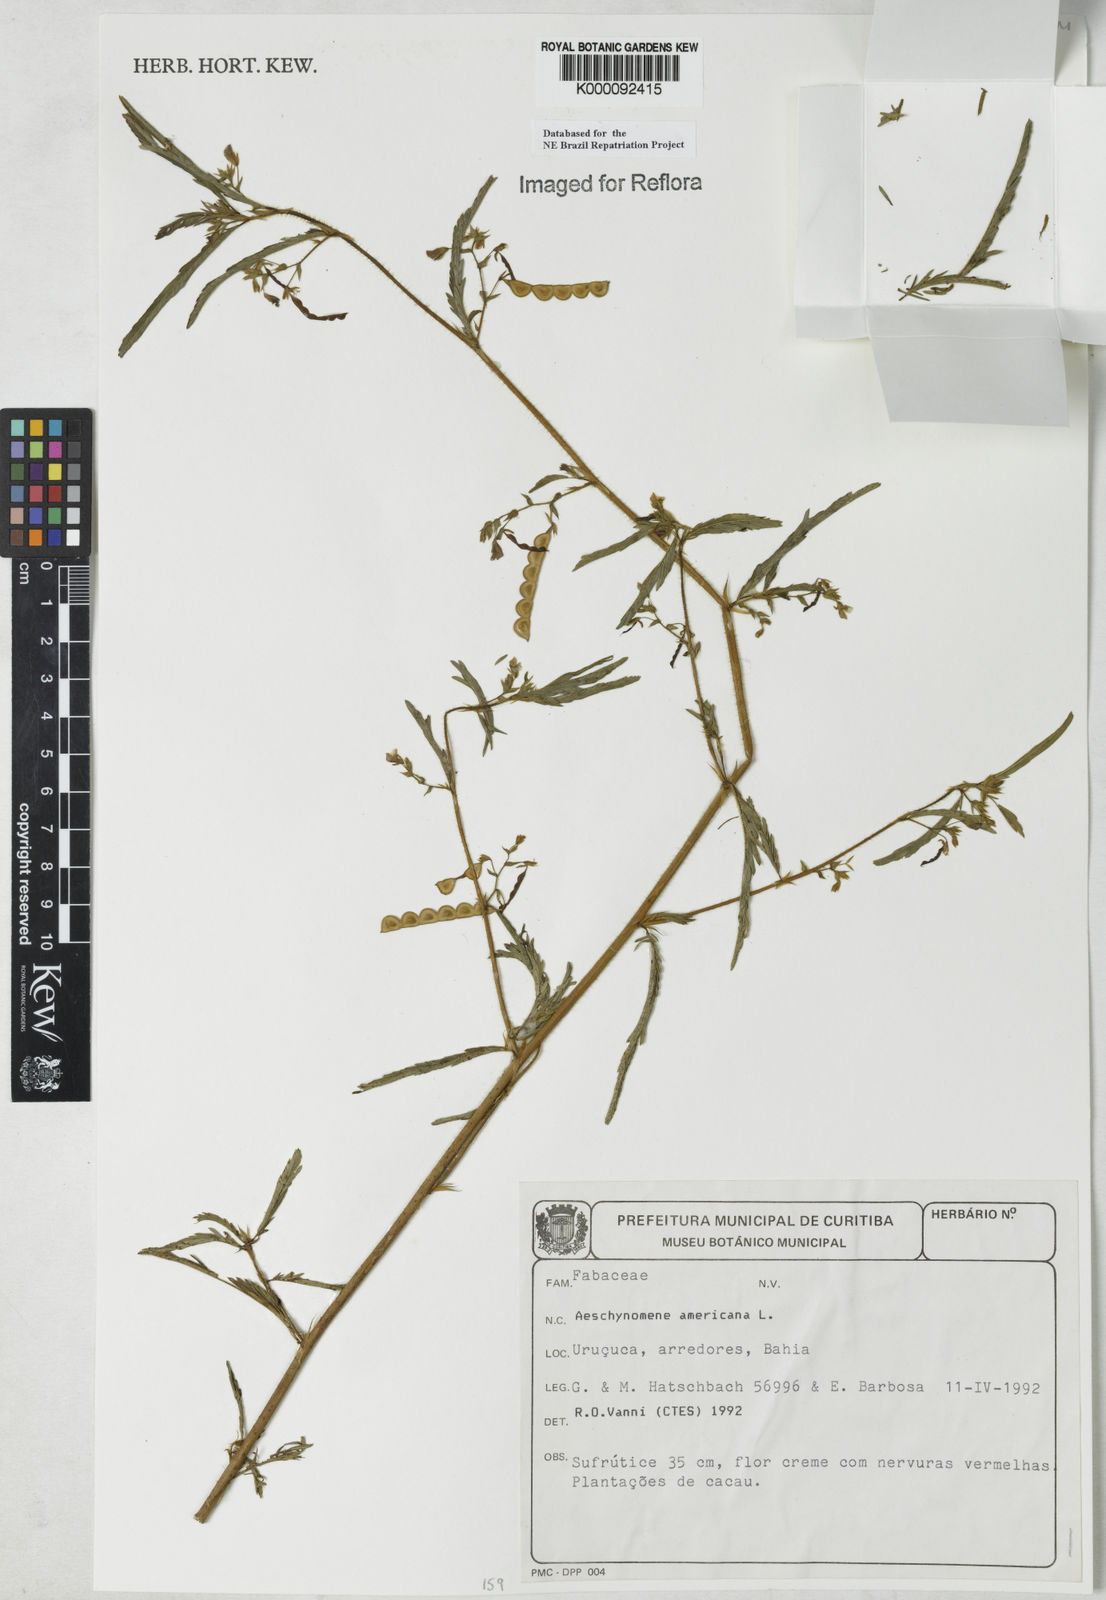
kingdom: Plantae
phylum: Tracheophyta
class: Magnoliopsida
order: Fabales
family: Fabaceae
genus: Aeschynomene
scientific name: Aeschynomene americana
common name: Joint-vetch
